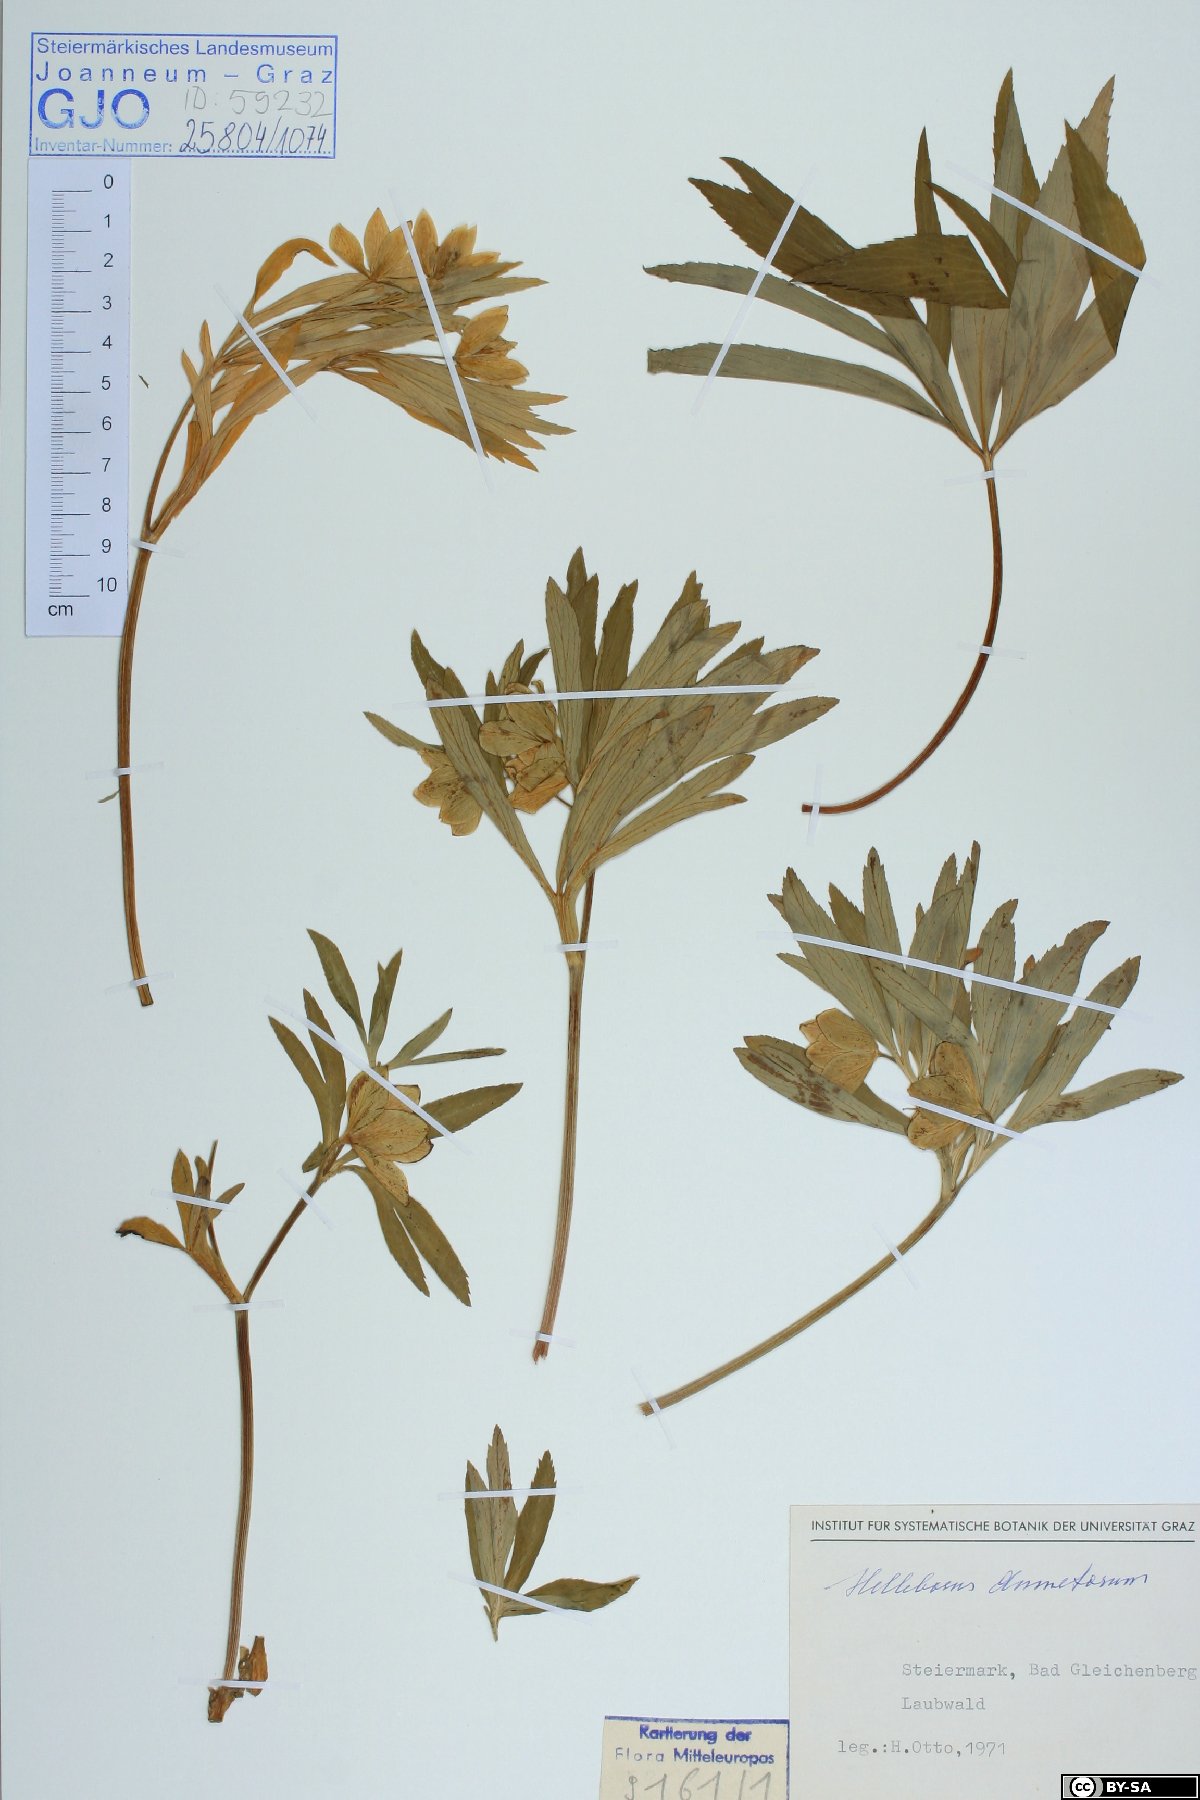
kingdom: Plantae
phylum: Tracheophyta
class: Magnoliopsida
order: Ranunculales
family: Ranunculaceae
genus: Helleborus
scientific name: Helleborus dumetorum
